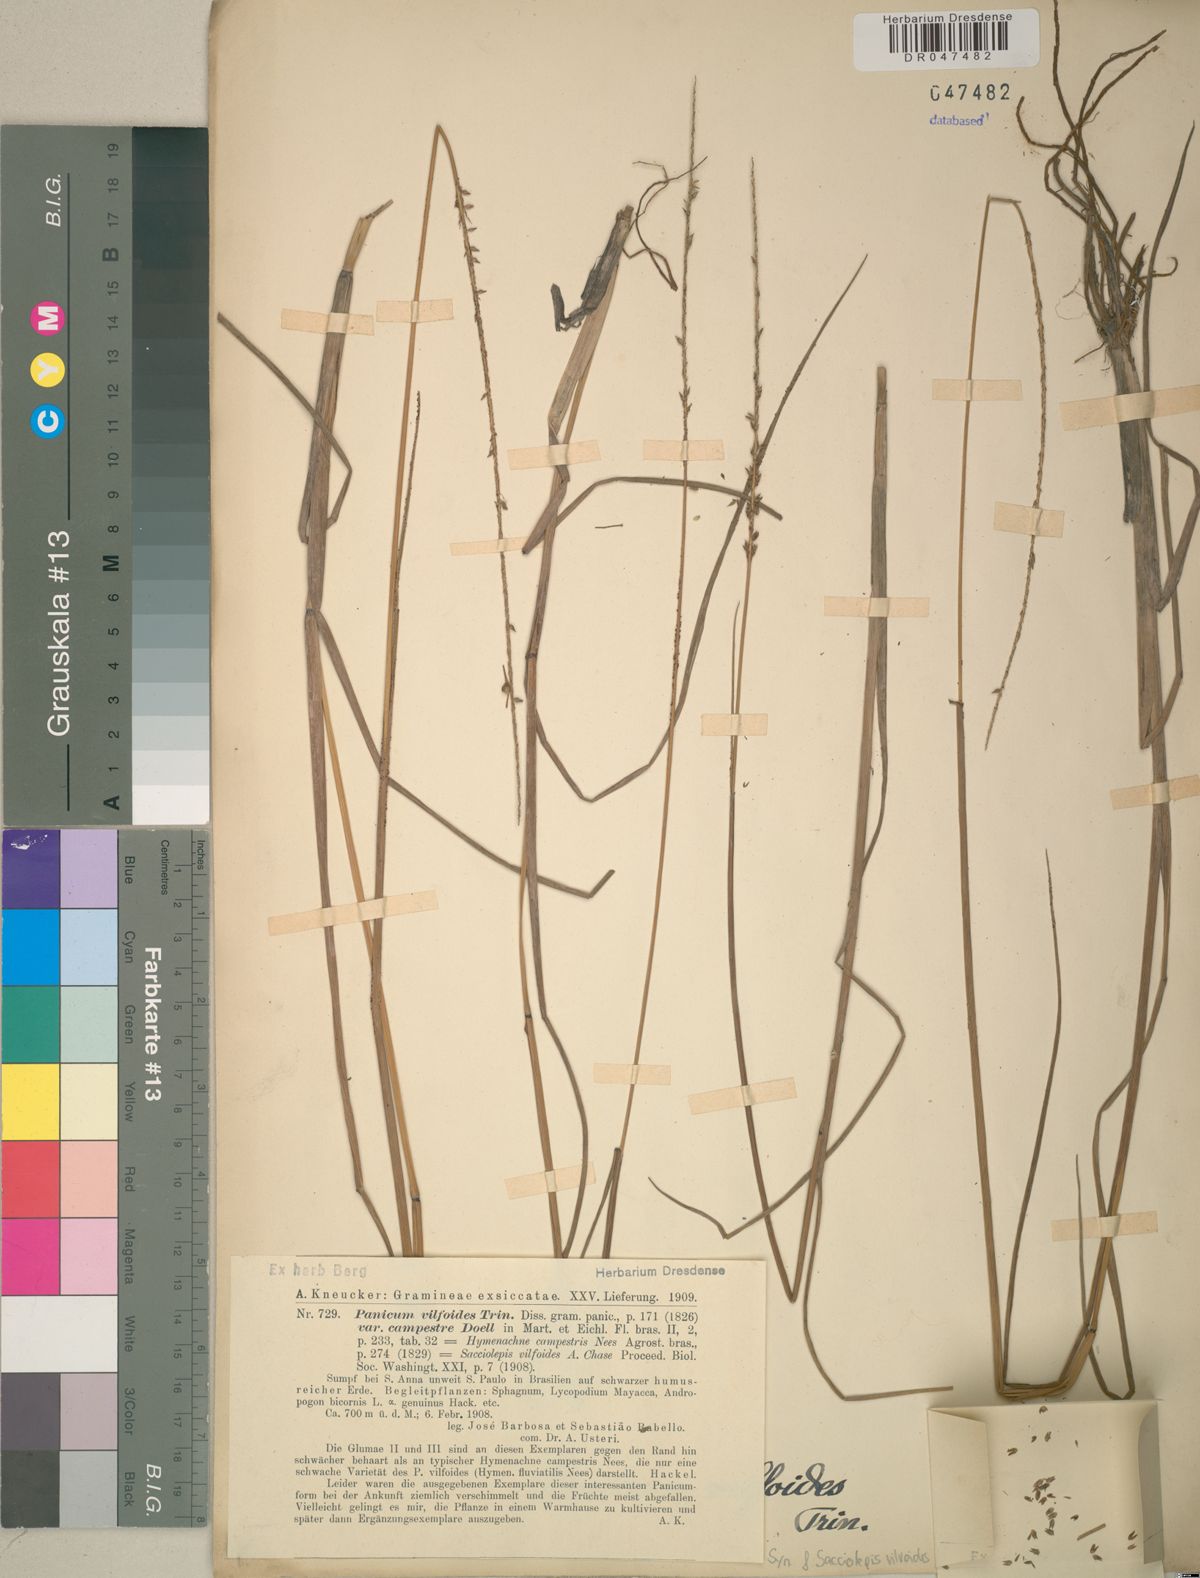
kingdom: Plantae
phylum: Tracheophyta
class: Liliopsida
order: Poales
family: Poaceae
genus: Sacciolepis
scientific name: Sacciolepis vilvoides
